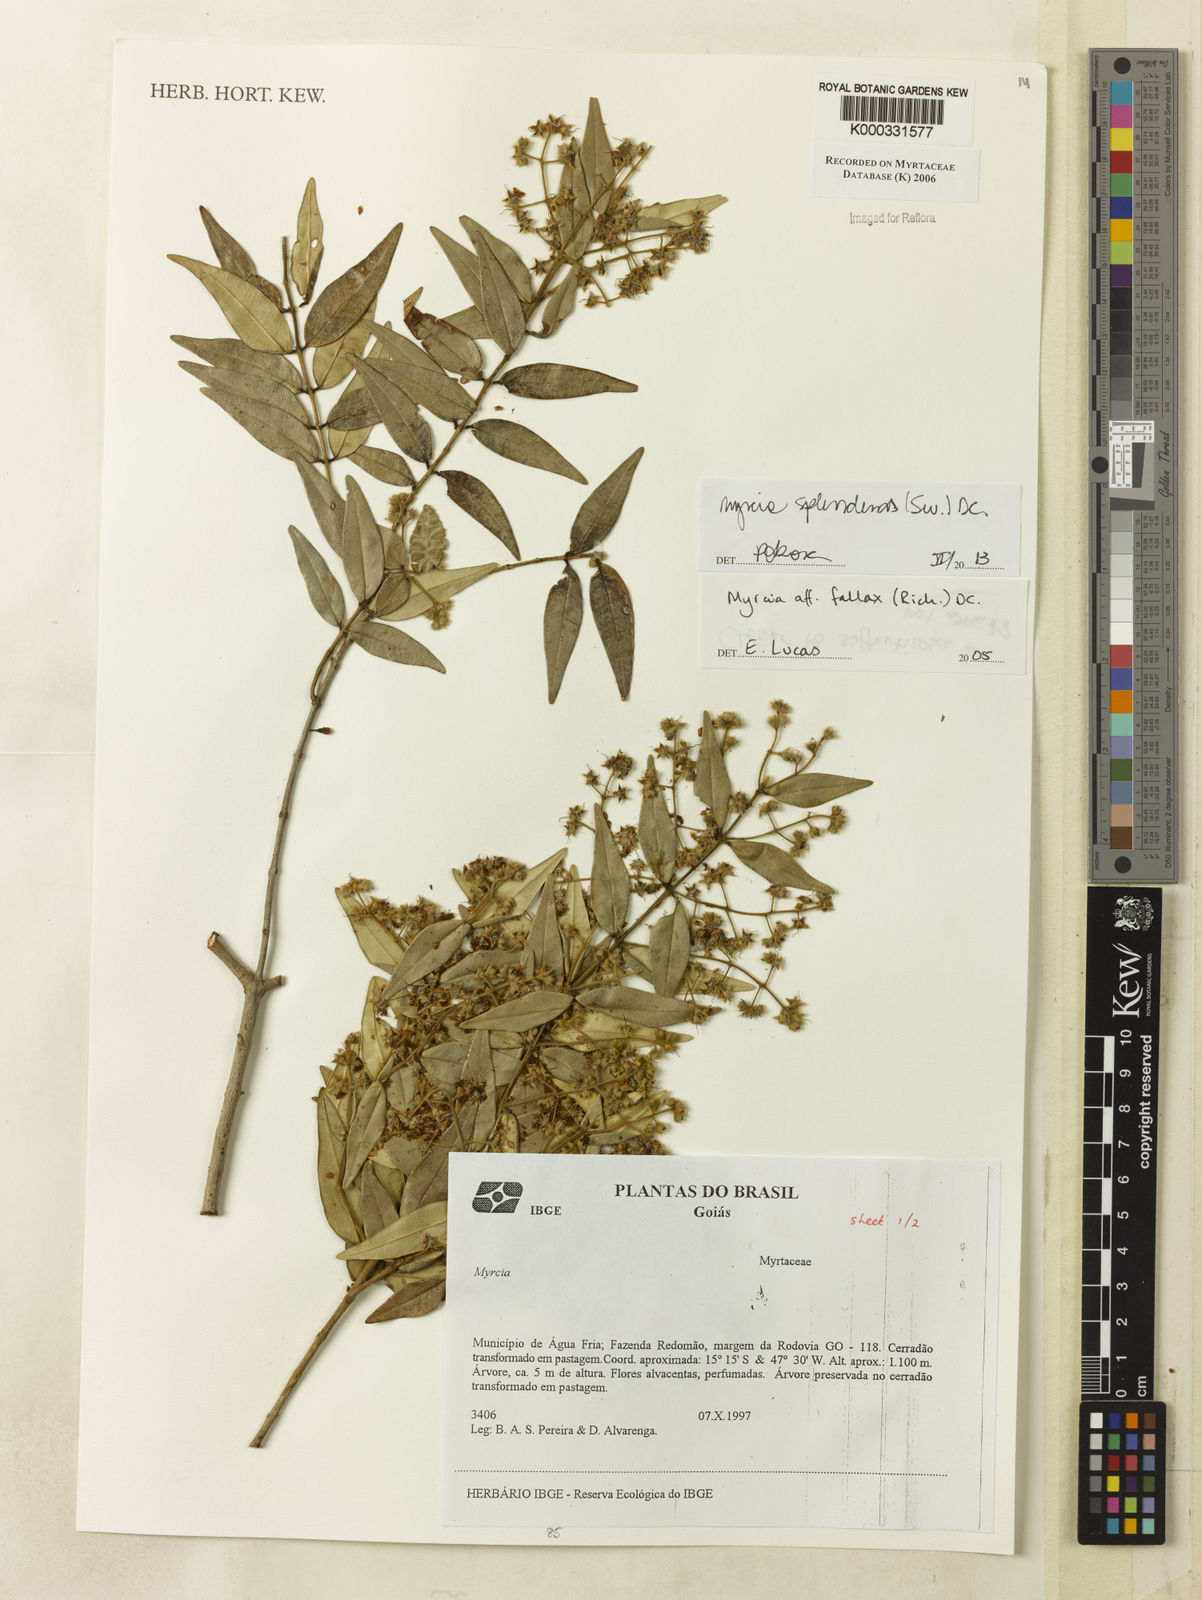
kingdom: Plantae
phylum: Tracheophyta
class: Magnoliopsida
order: Myrtales
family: Myrtaceae
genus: Myrcia
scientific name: Myrcia
